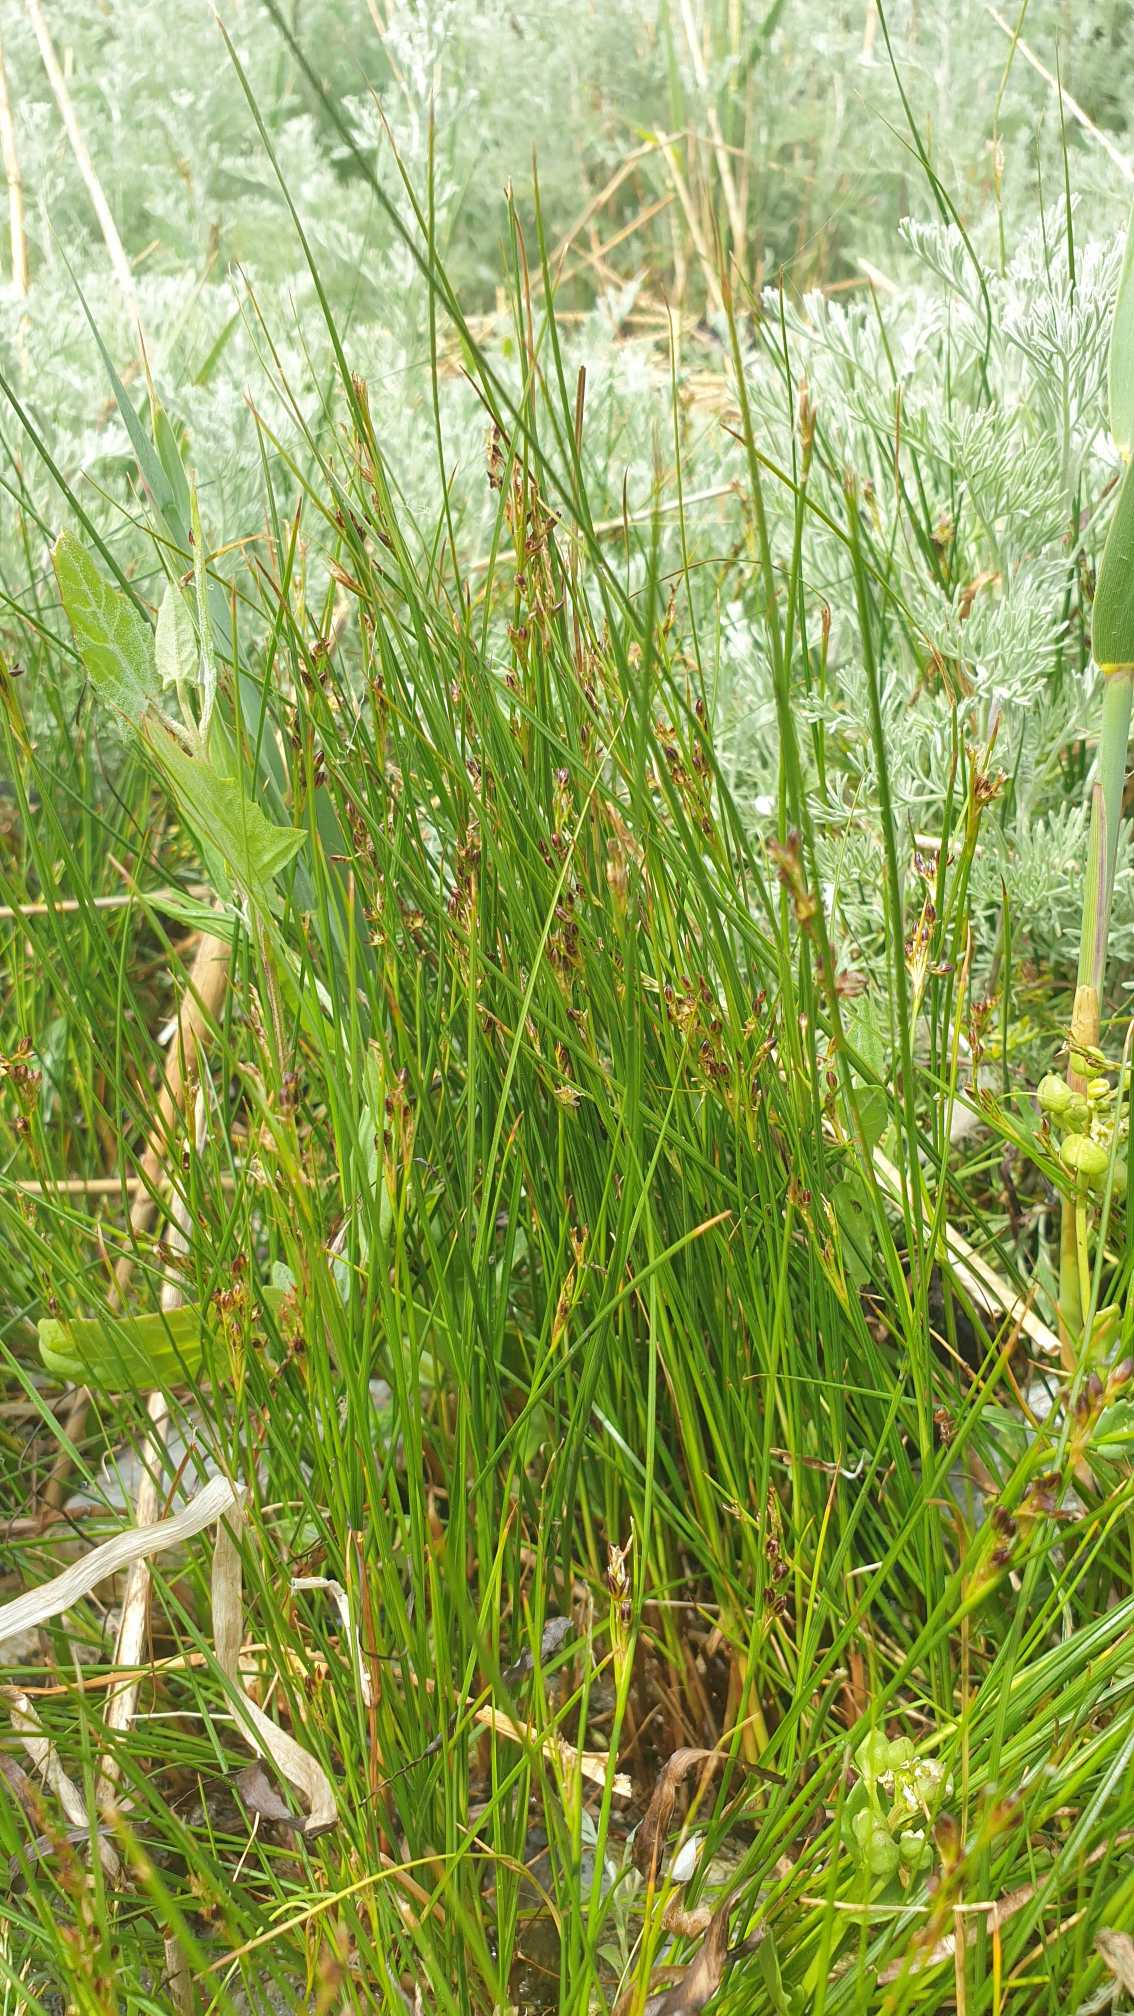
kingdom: Plantae
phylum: Tracheophyta
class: Liliopsida
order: Poales
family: Juncaceae
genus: Juncus
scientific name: Juncus gerardi
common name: Harril
